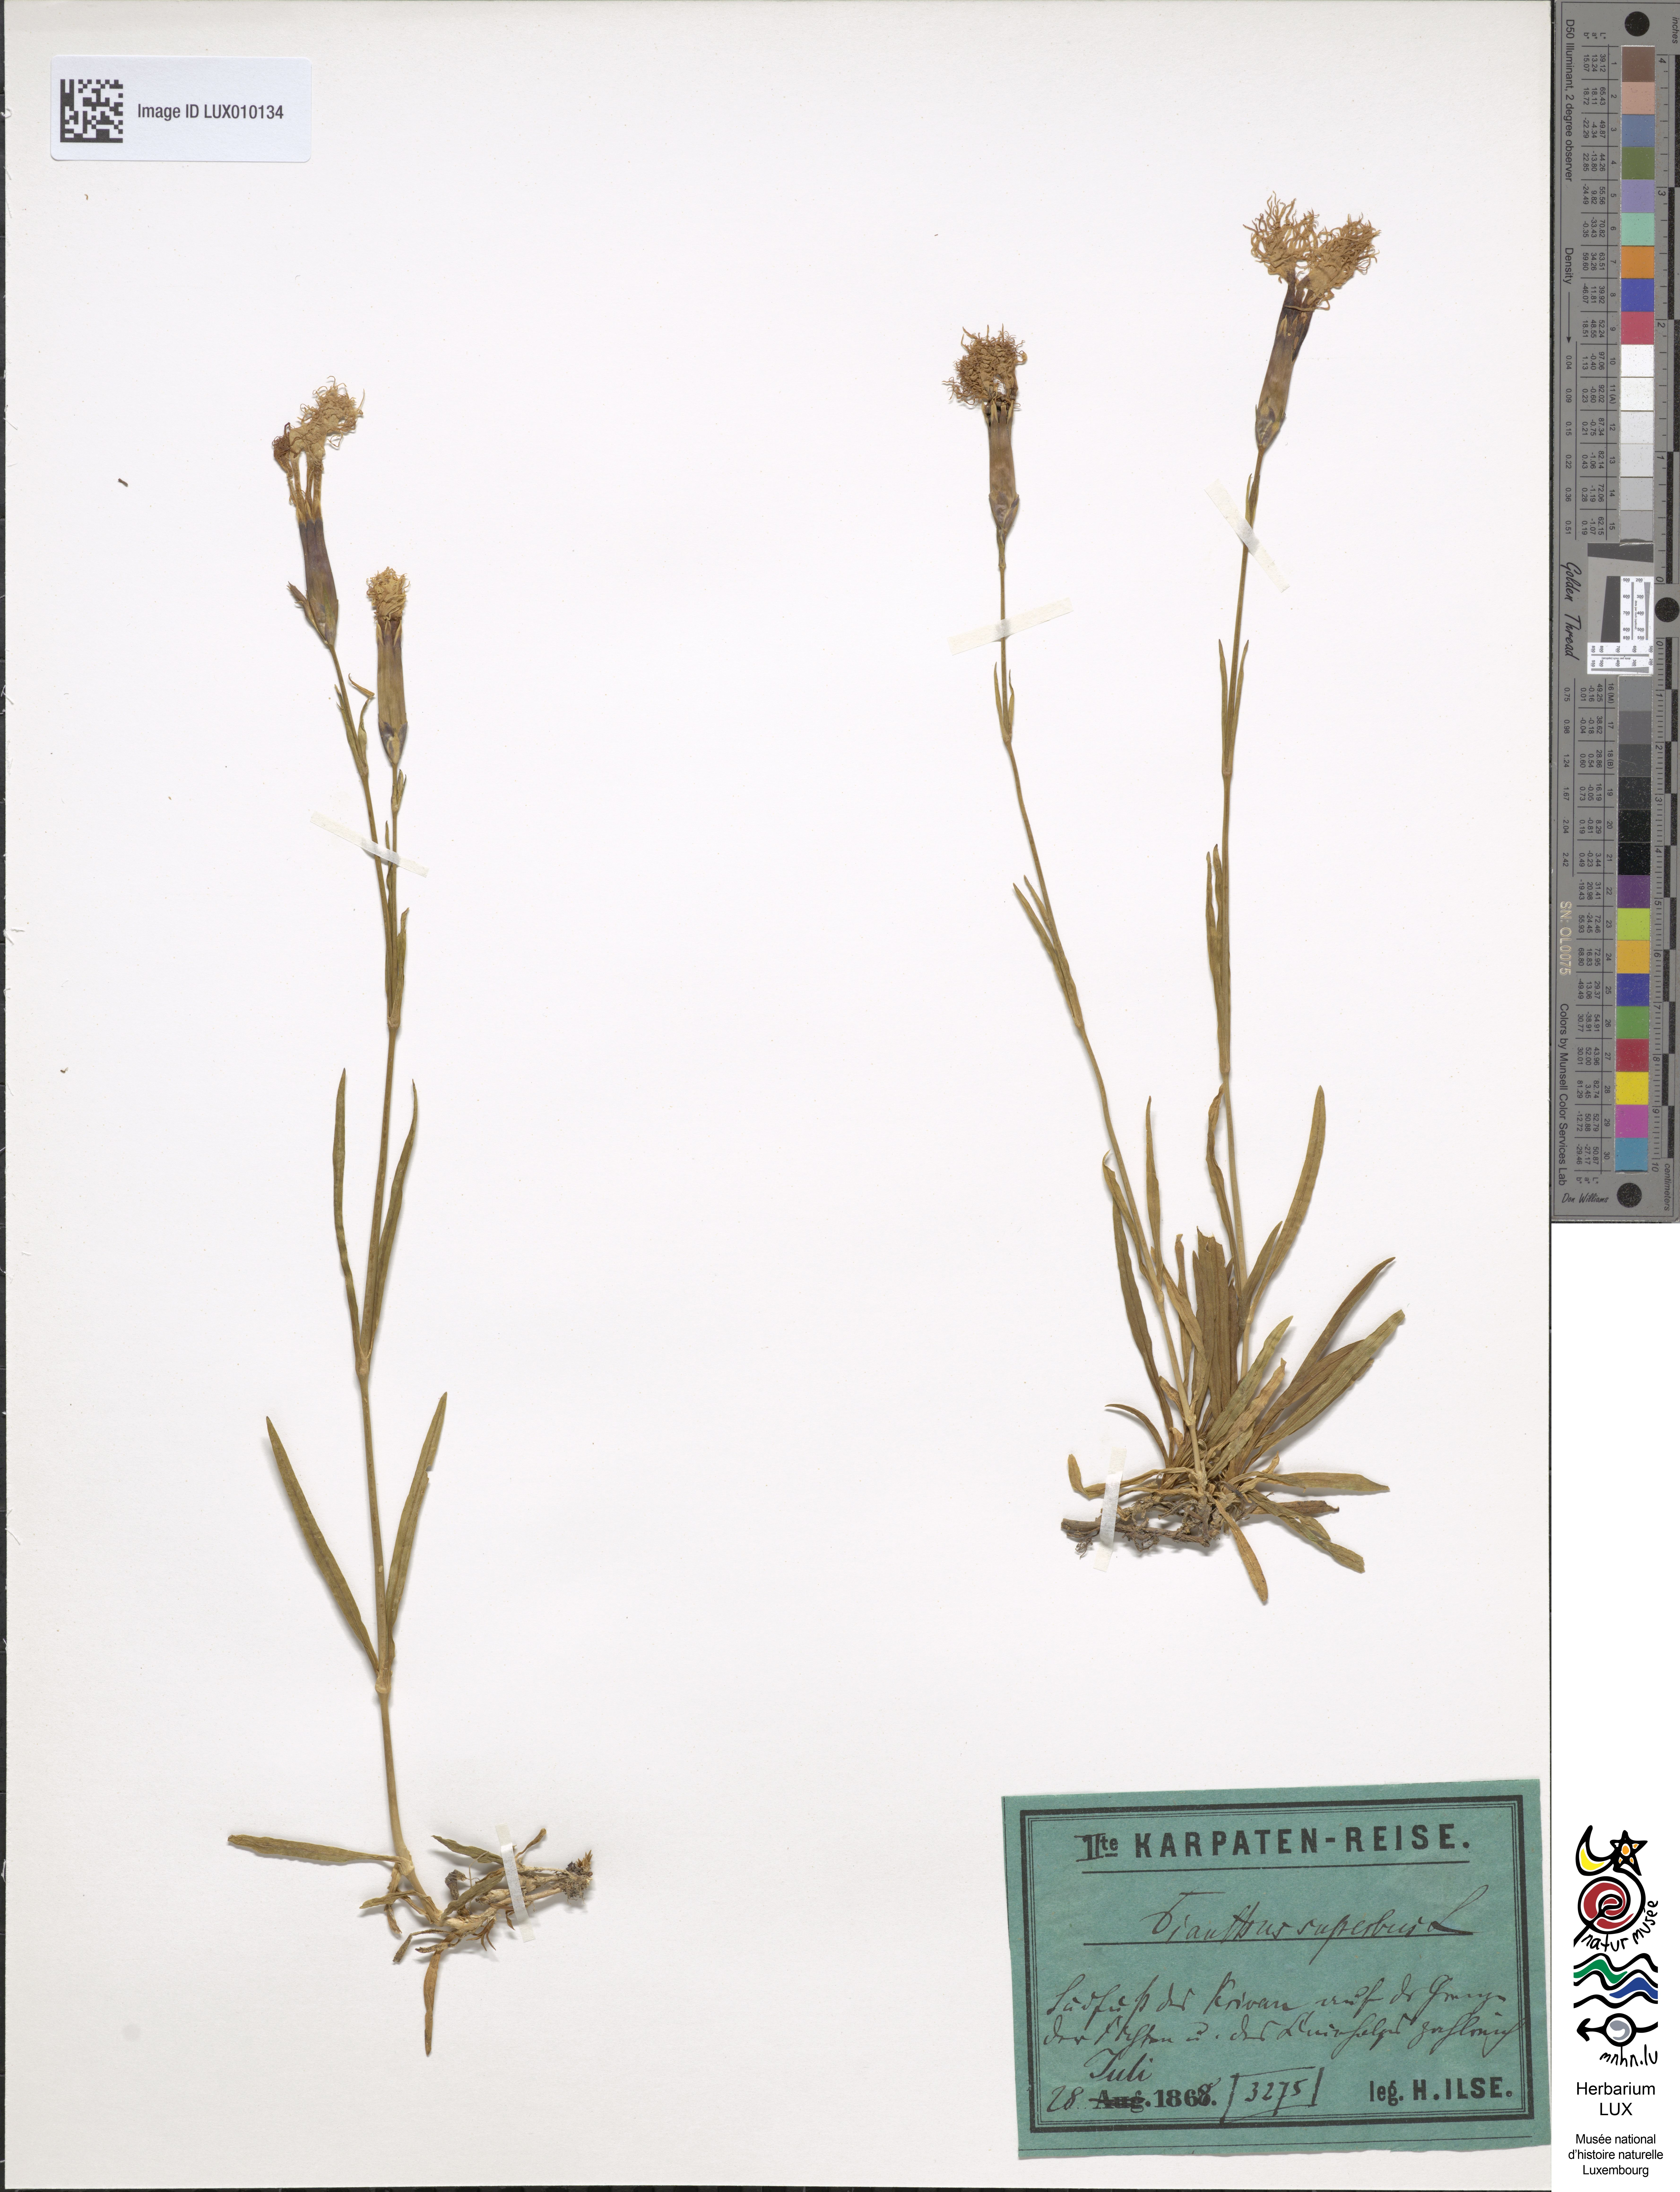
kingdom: Plantae
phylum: Tracheophyta
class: Magnoliopsida
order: Caryophyllales
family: Caryophyllaceae
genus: Dianthus
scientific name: Dianthus superbus
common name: Fringed pink
